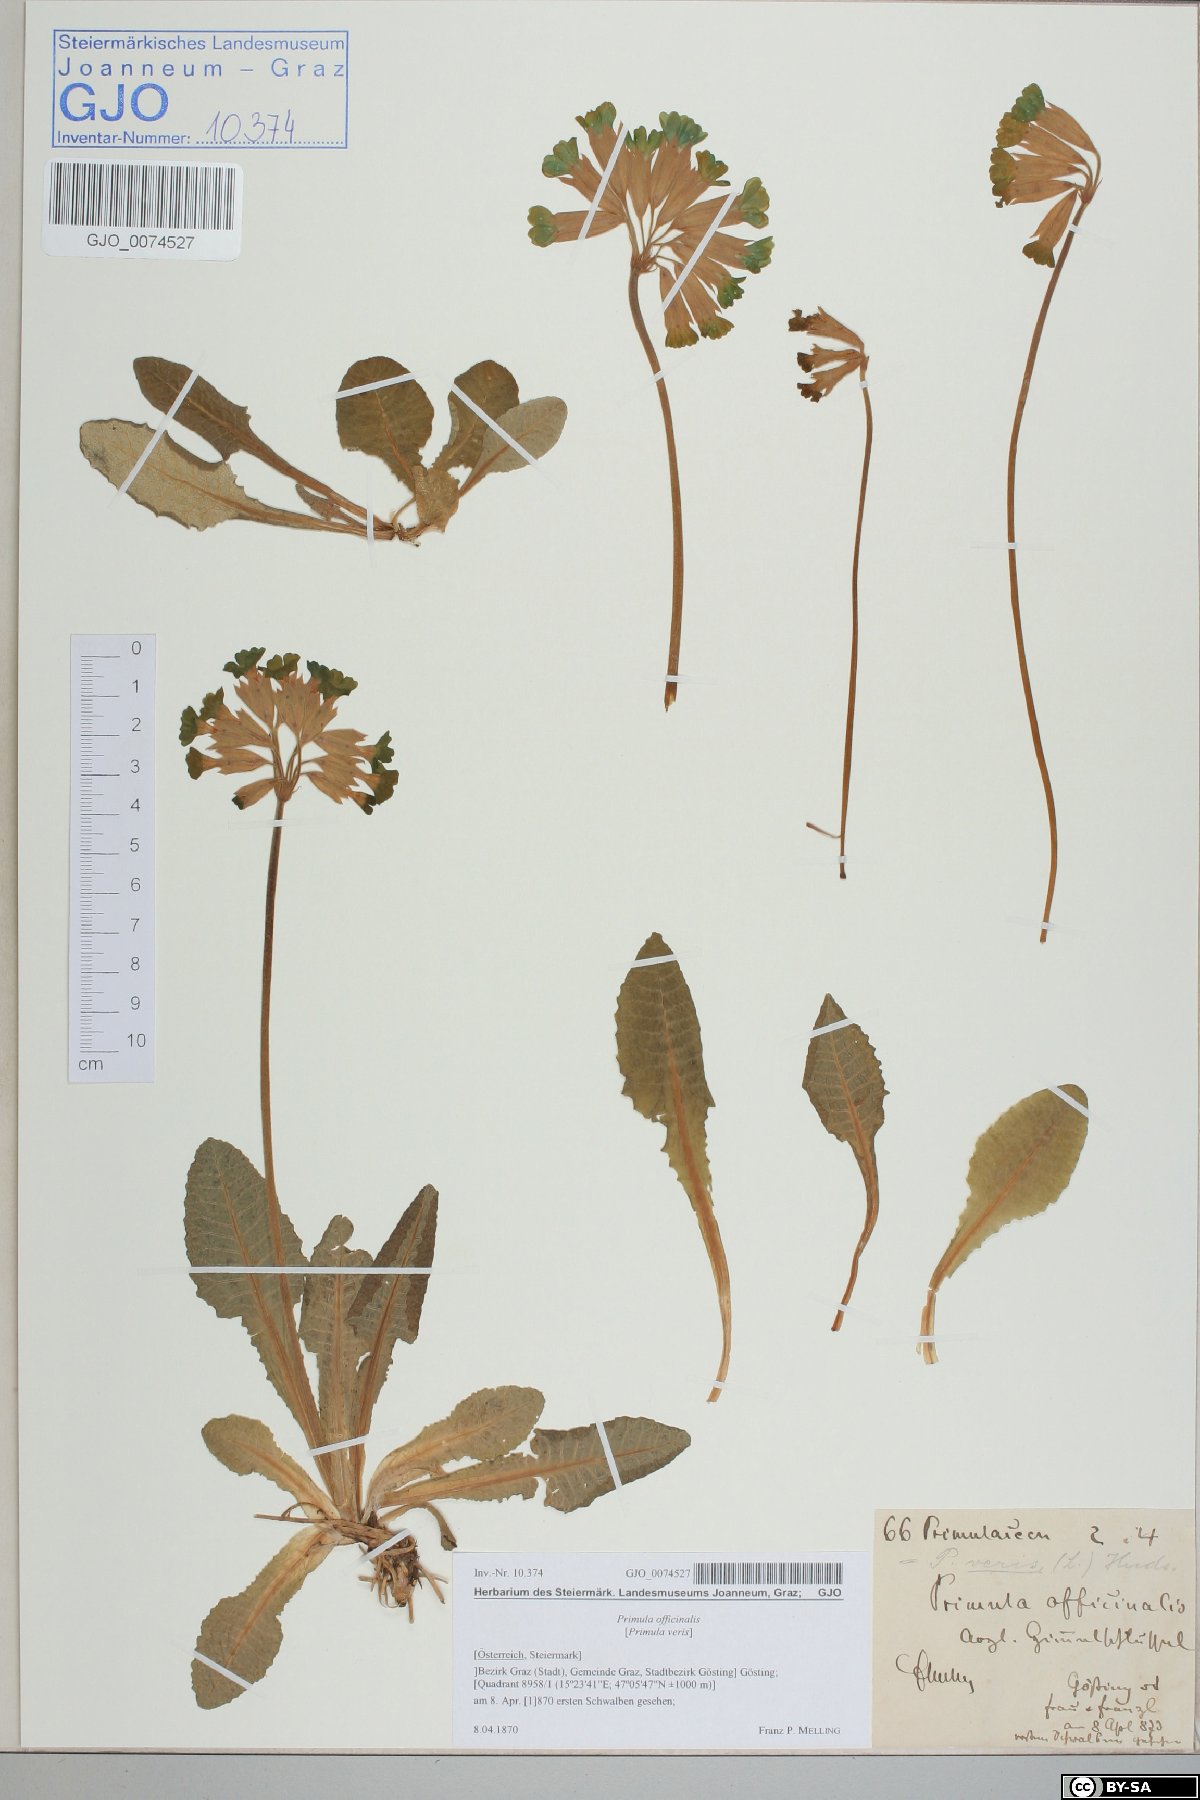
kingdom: Plantae
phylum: Tracheophyta
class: Magnoliopsida
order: Ericales
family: Primulaceae
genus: Primula
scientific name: Primula veris
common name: Cowslip
